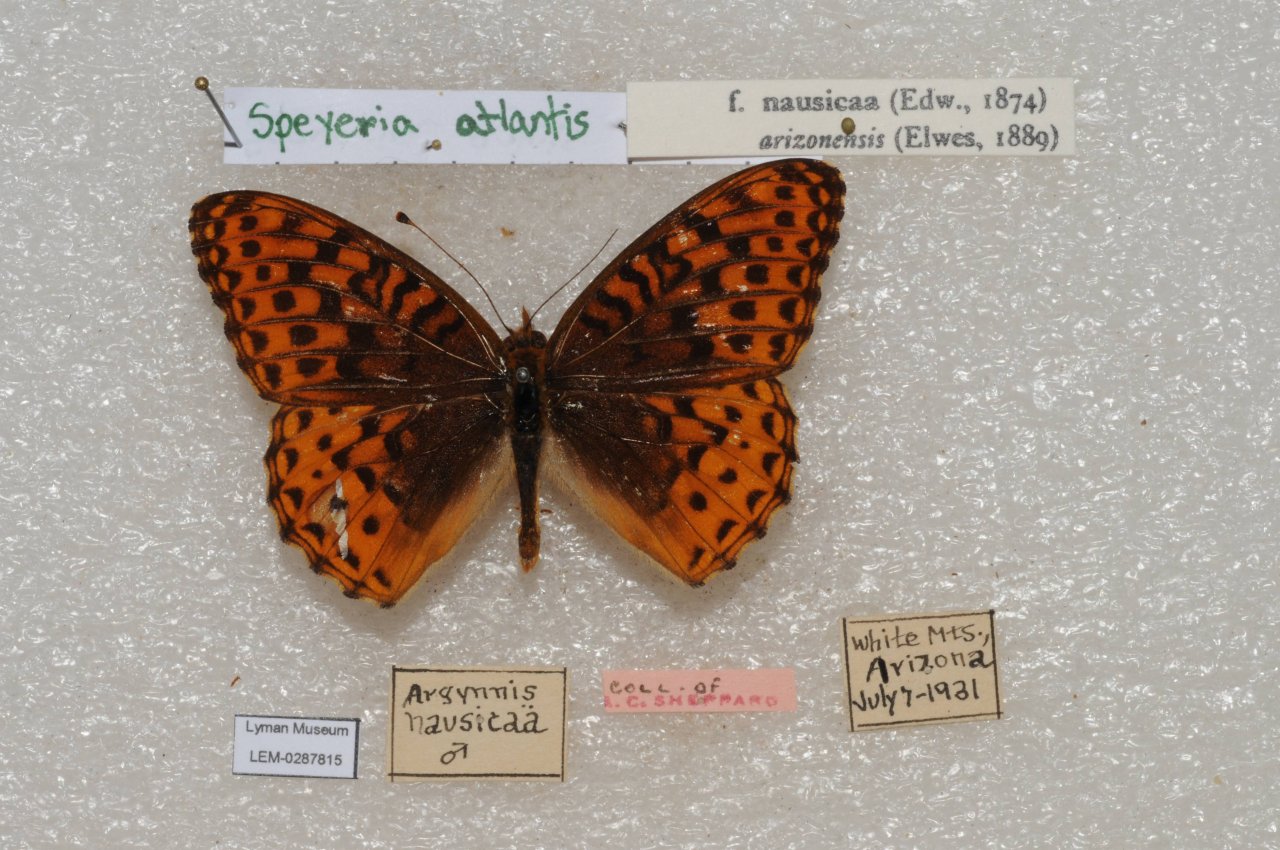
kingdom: Animalia
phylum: Arthropoda
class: Insecta
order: Lepidoptera
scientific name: Lepidoptera
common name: Butterflies
